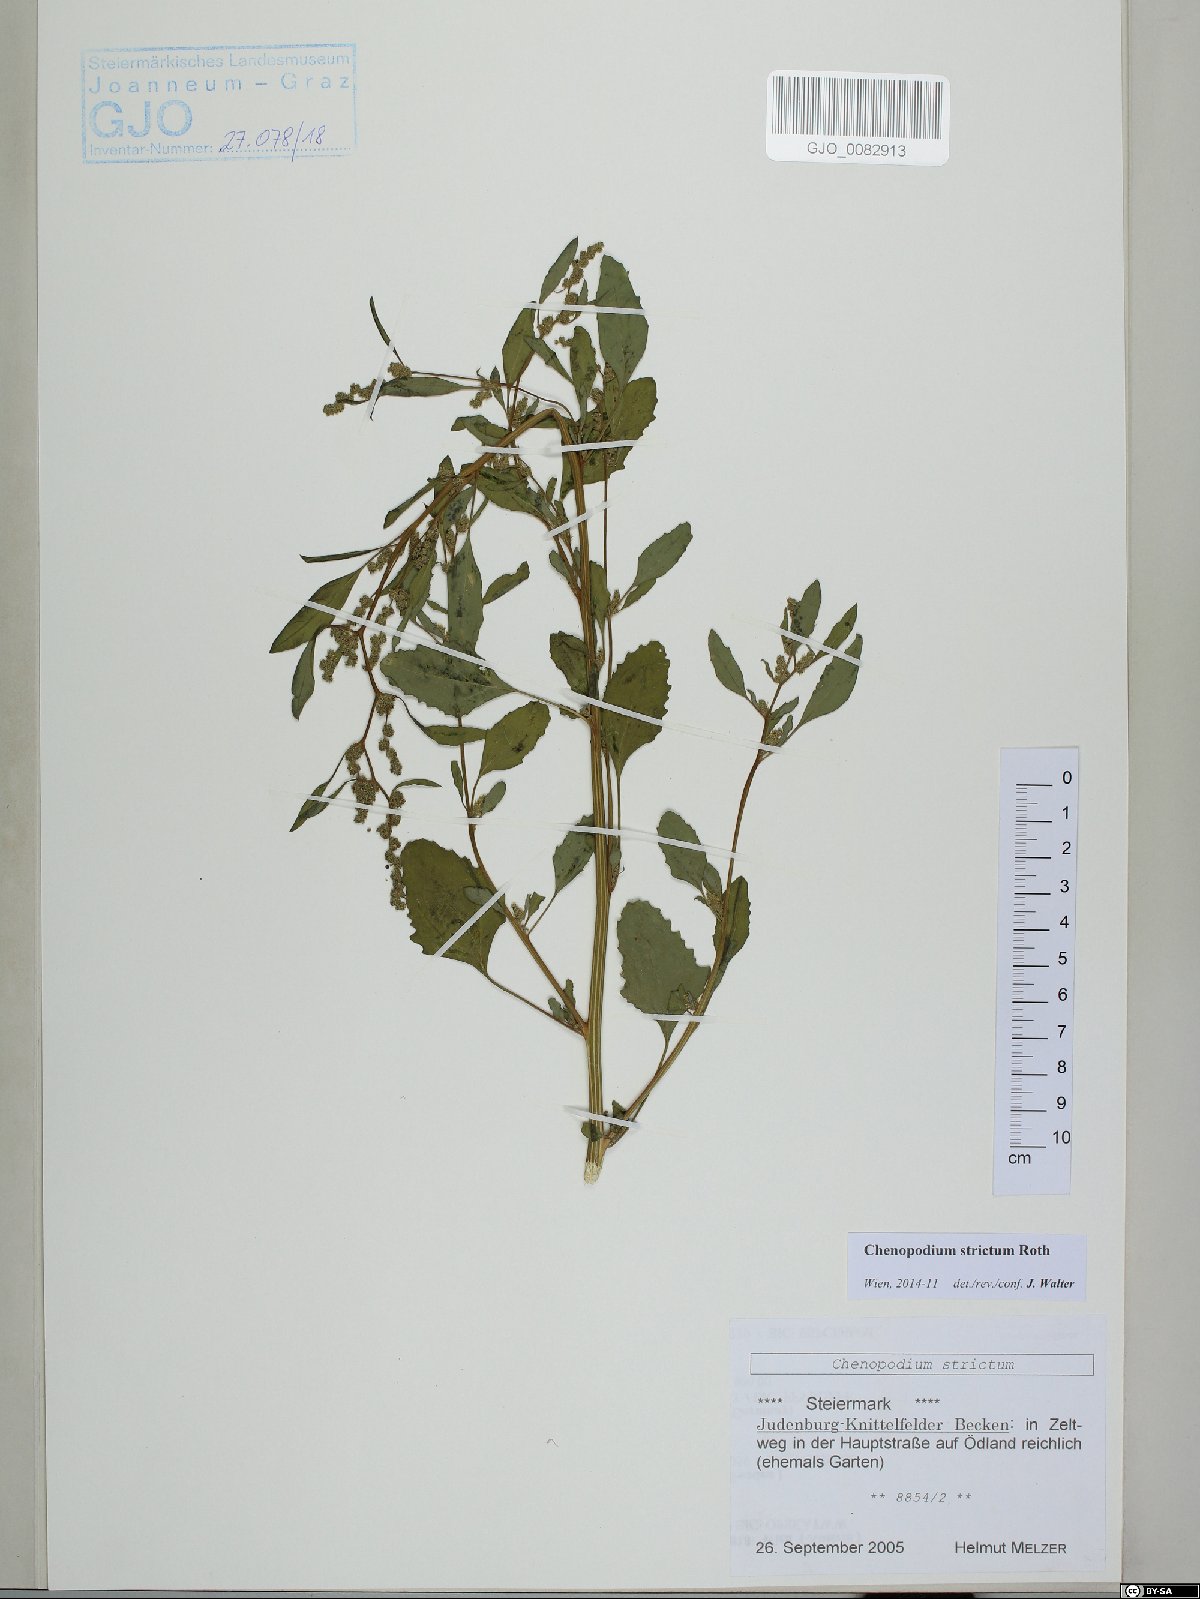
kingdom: Plantae
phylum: Tracheophyta
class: Magnoliopsida
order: Caryophyllales
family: Amaranthaceae
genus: Chenopodium
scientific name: Chenopodium album
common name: Fat-hen
